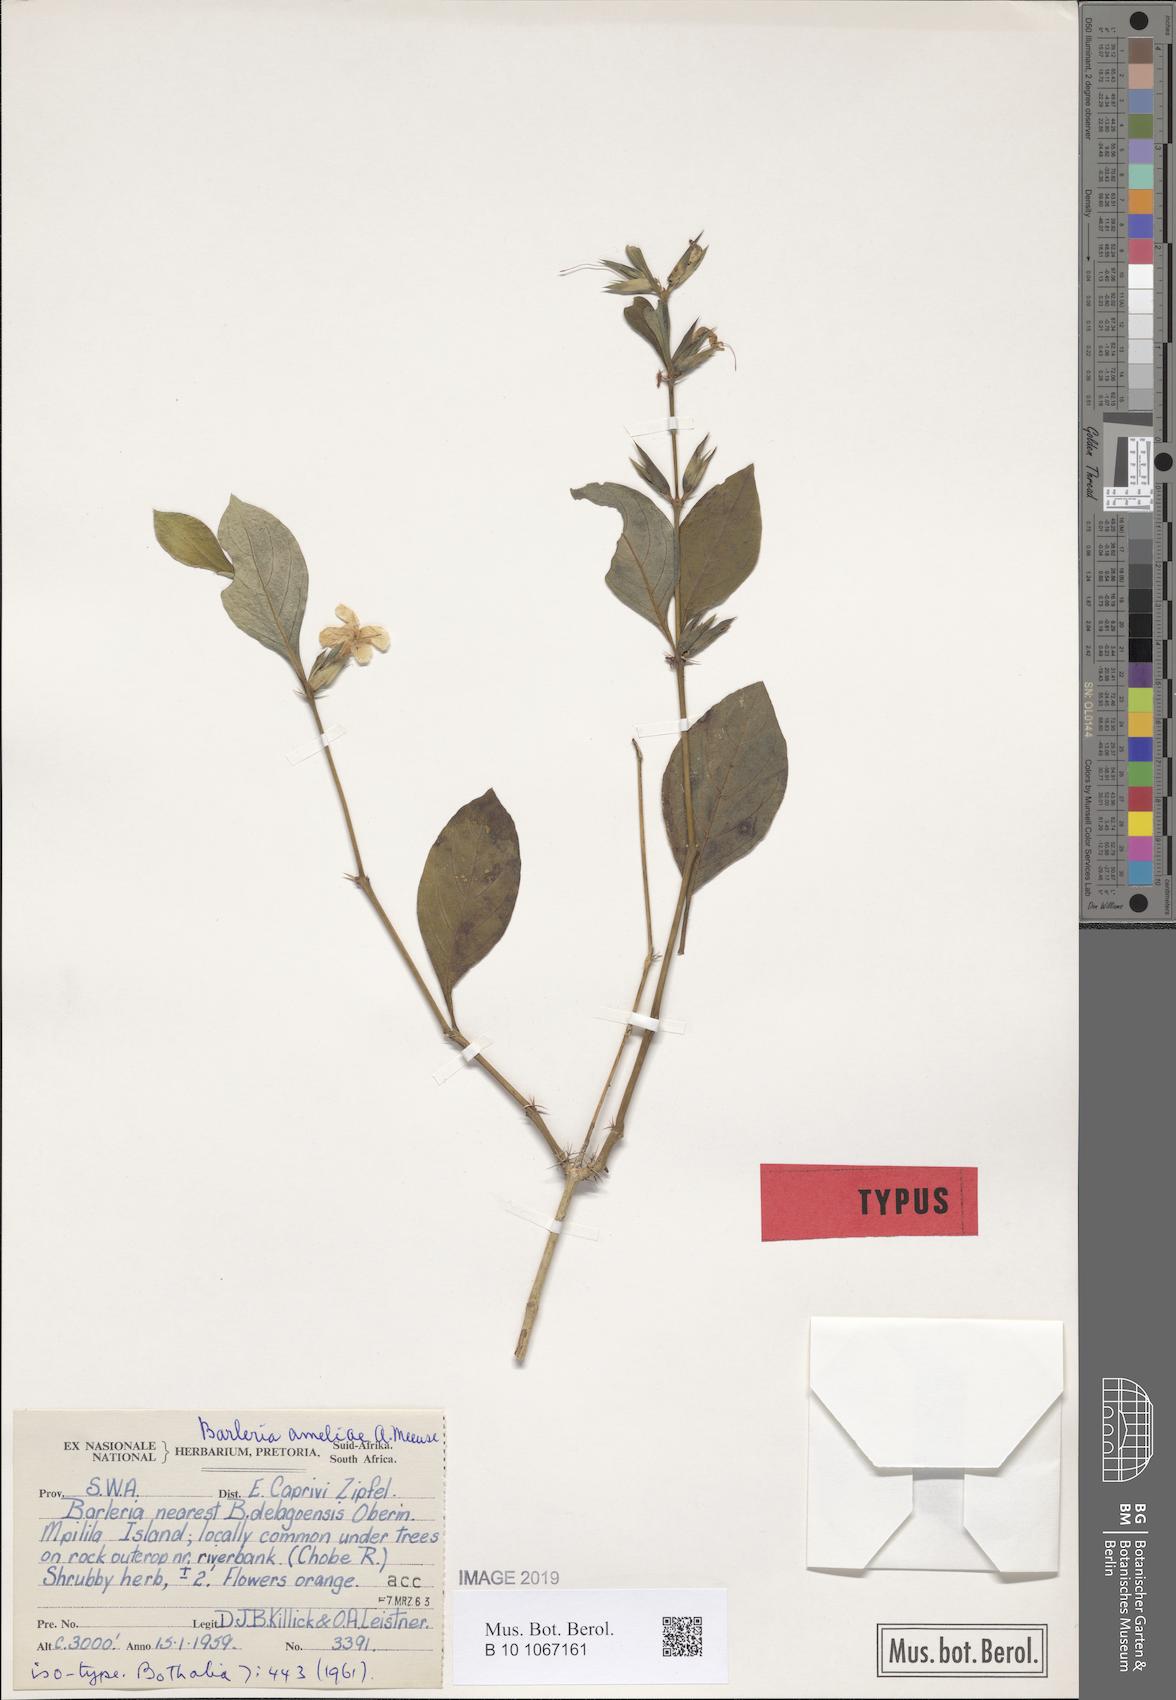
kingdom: Plantae
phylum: Tracheophyta
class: Magnoliopsida
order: Lamiales
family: Acanthaceae
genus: Barleria
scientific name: Barleria ameliae
